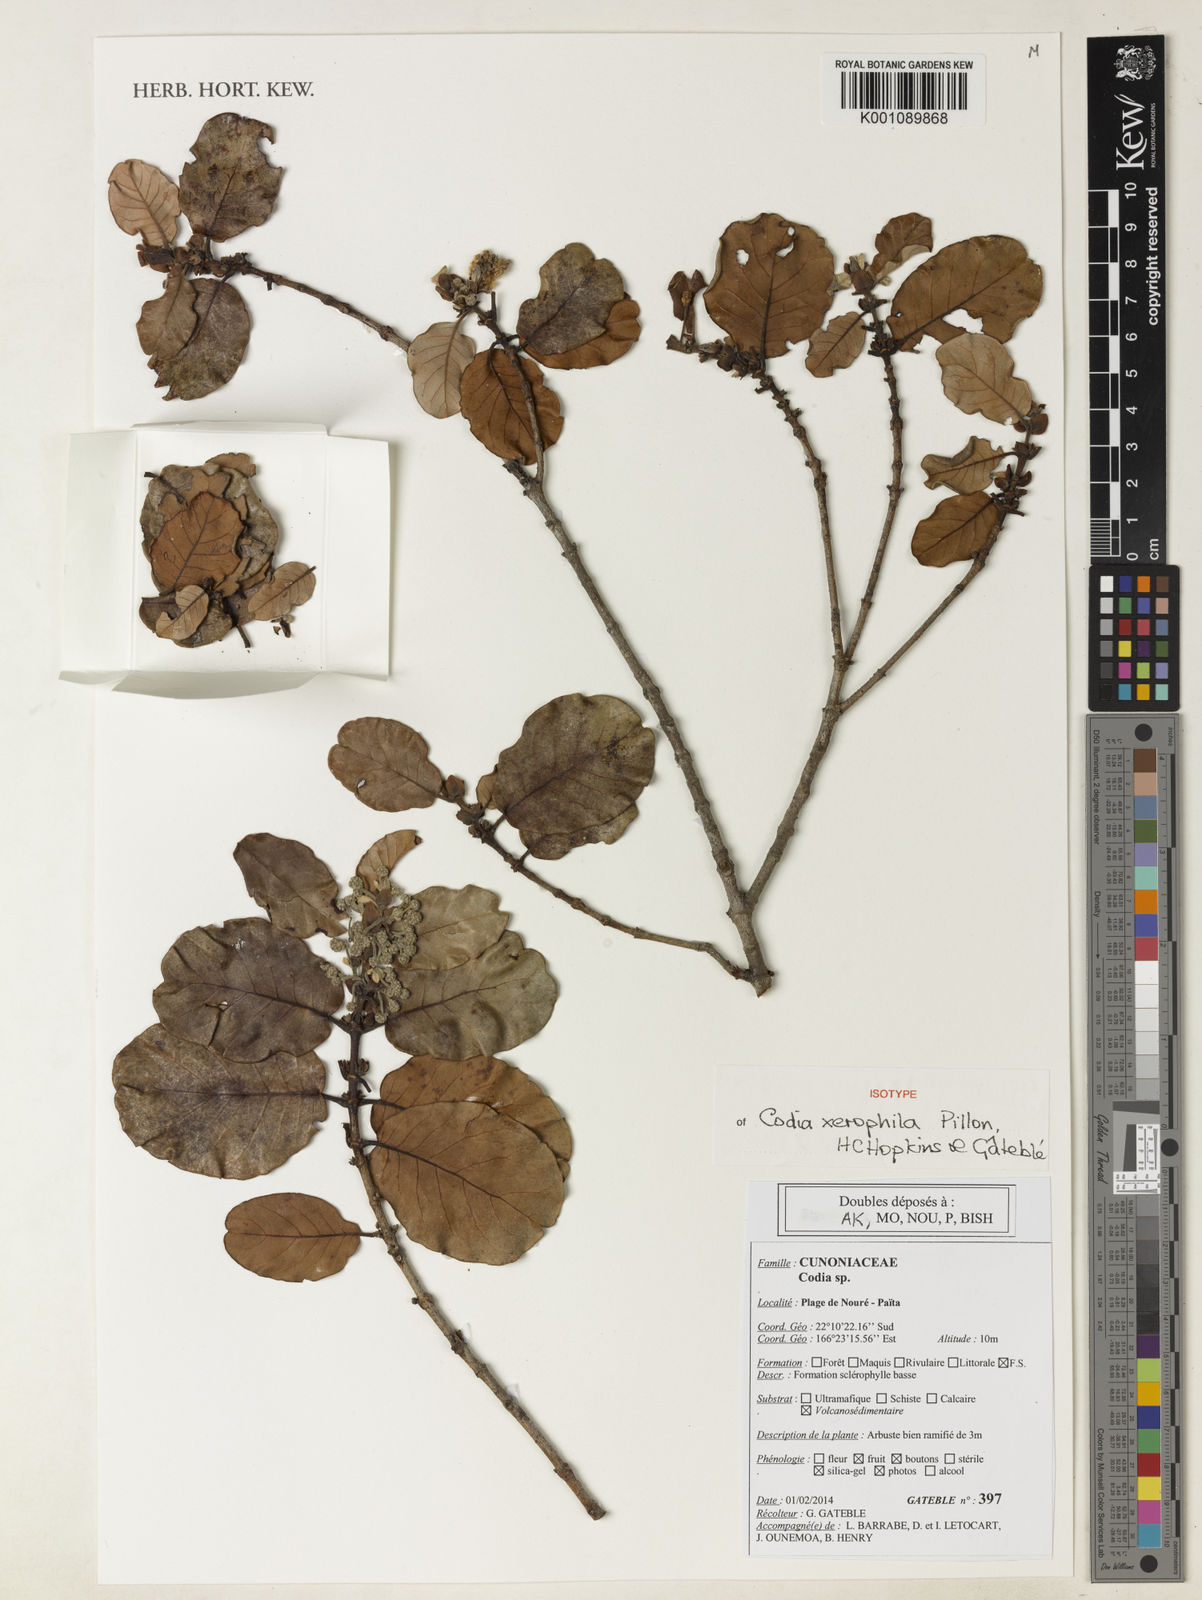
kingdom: Plantae
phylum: Tracheophyta
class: Magnoliopsida
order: Oxalidales
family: Cunoniaceae
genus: Codia
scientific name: Codia
